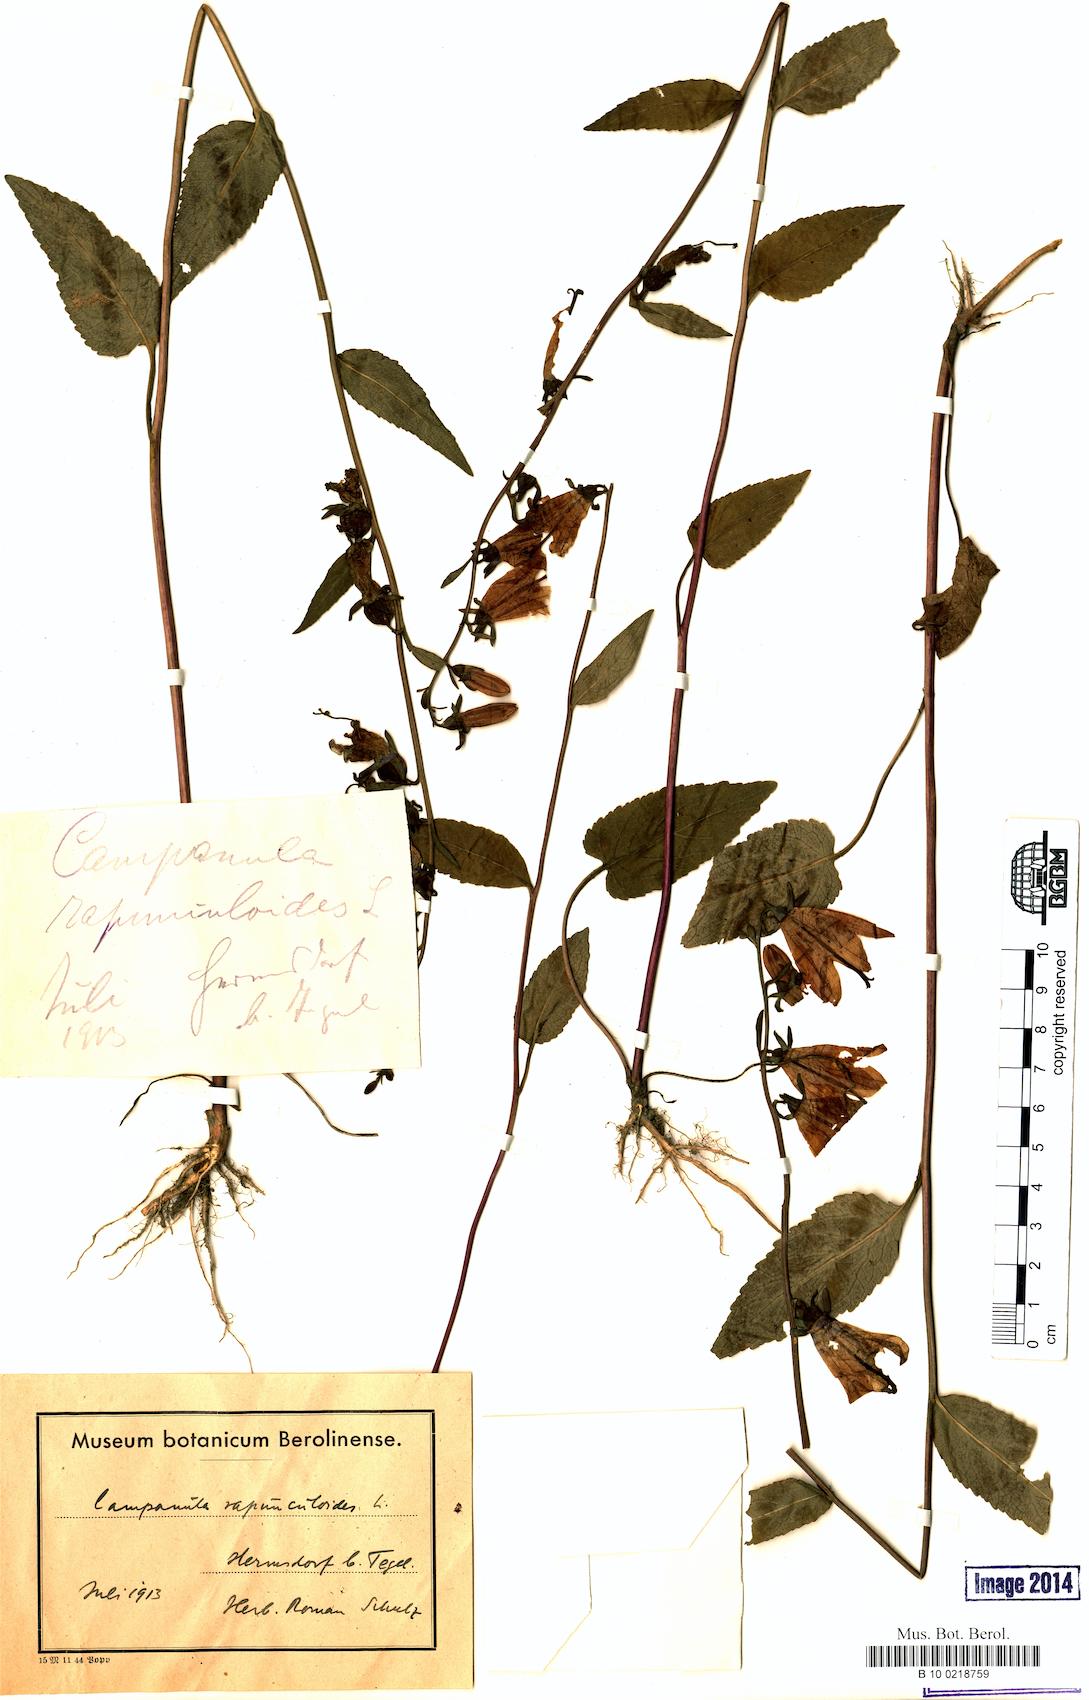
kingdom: Plantae
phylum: Tracheophyta
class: Magnoliopsida
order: Asterales
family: Campanulaceae
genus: Campanula
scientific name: Campanula rapunculoides
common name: Creeping bellflower
